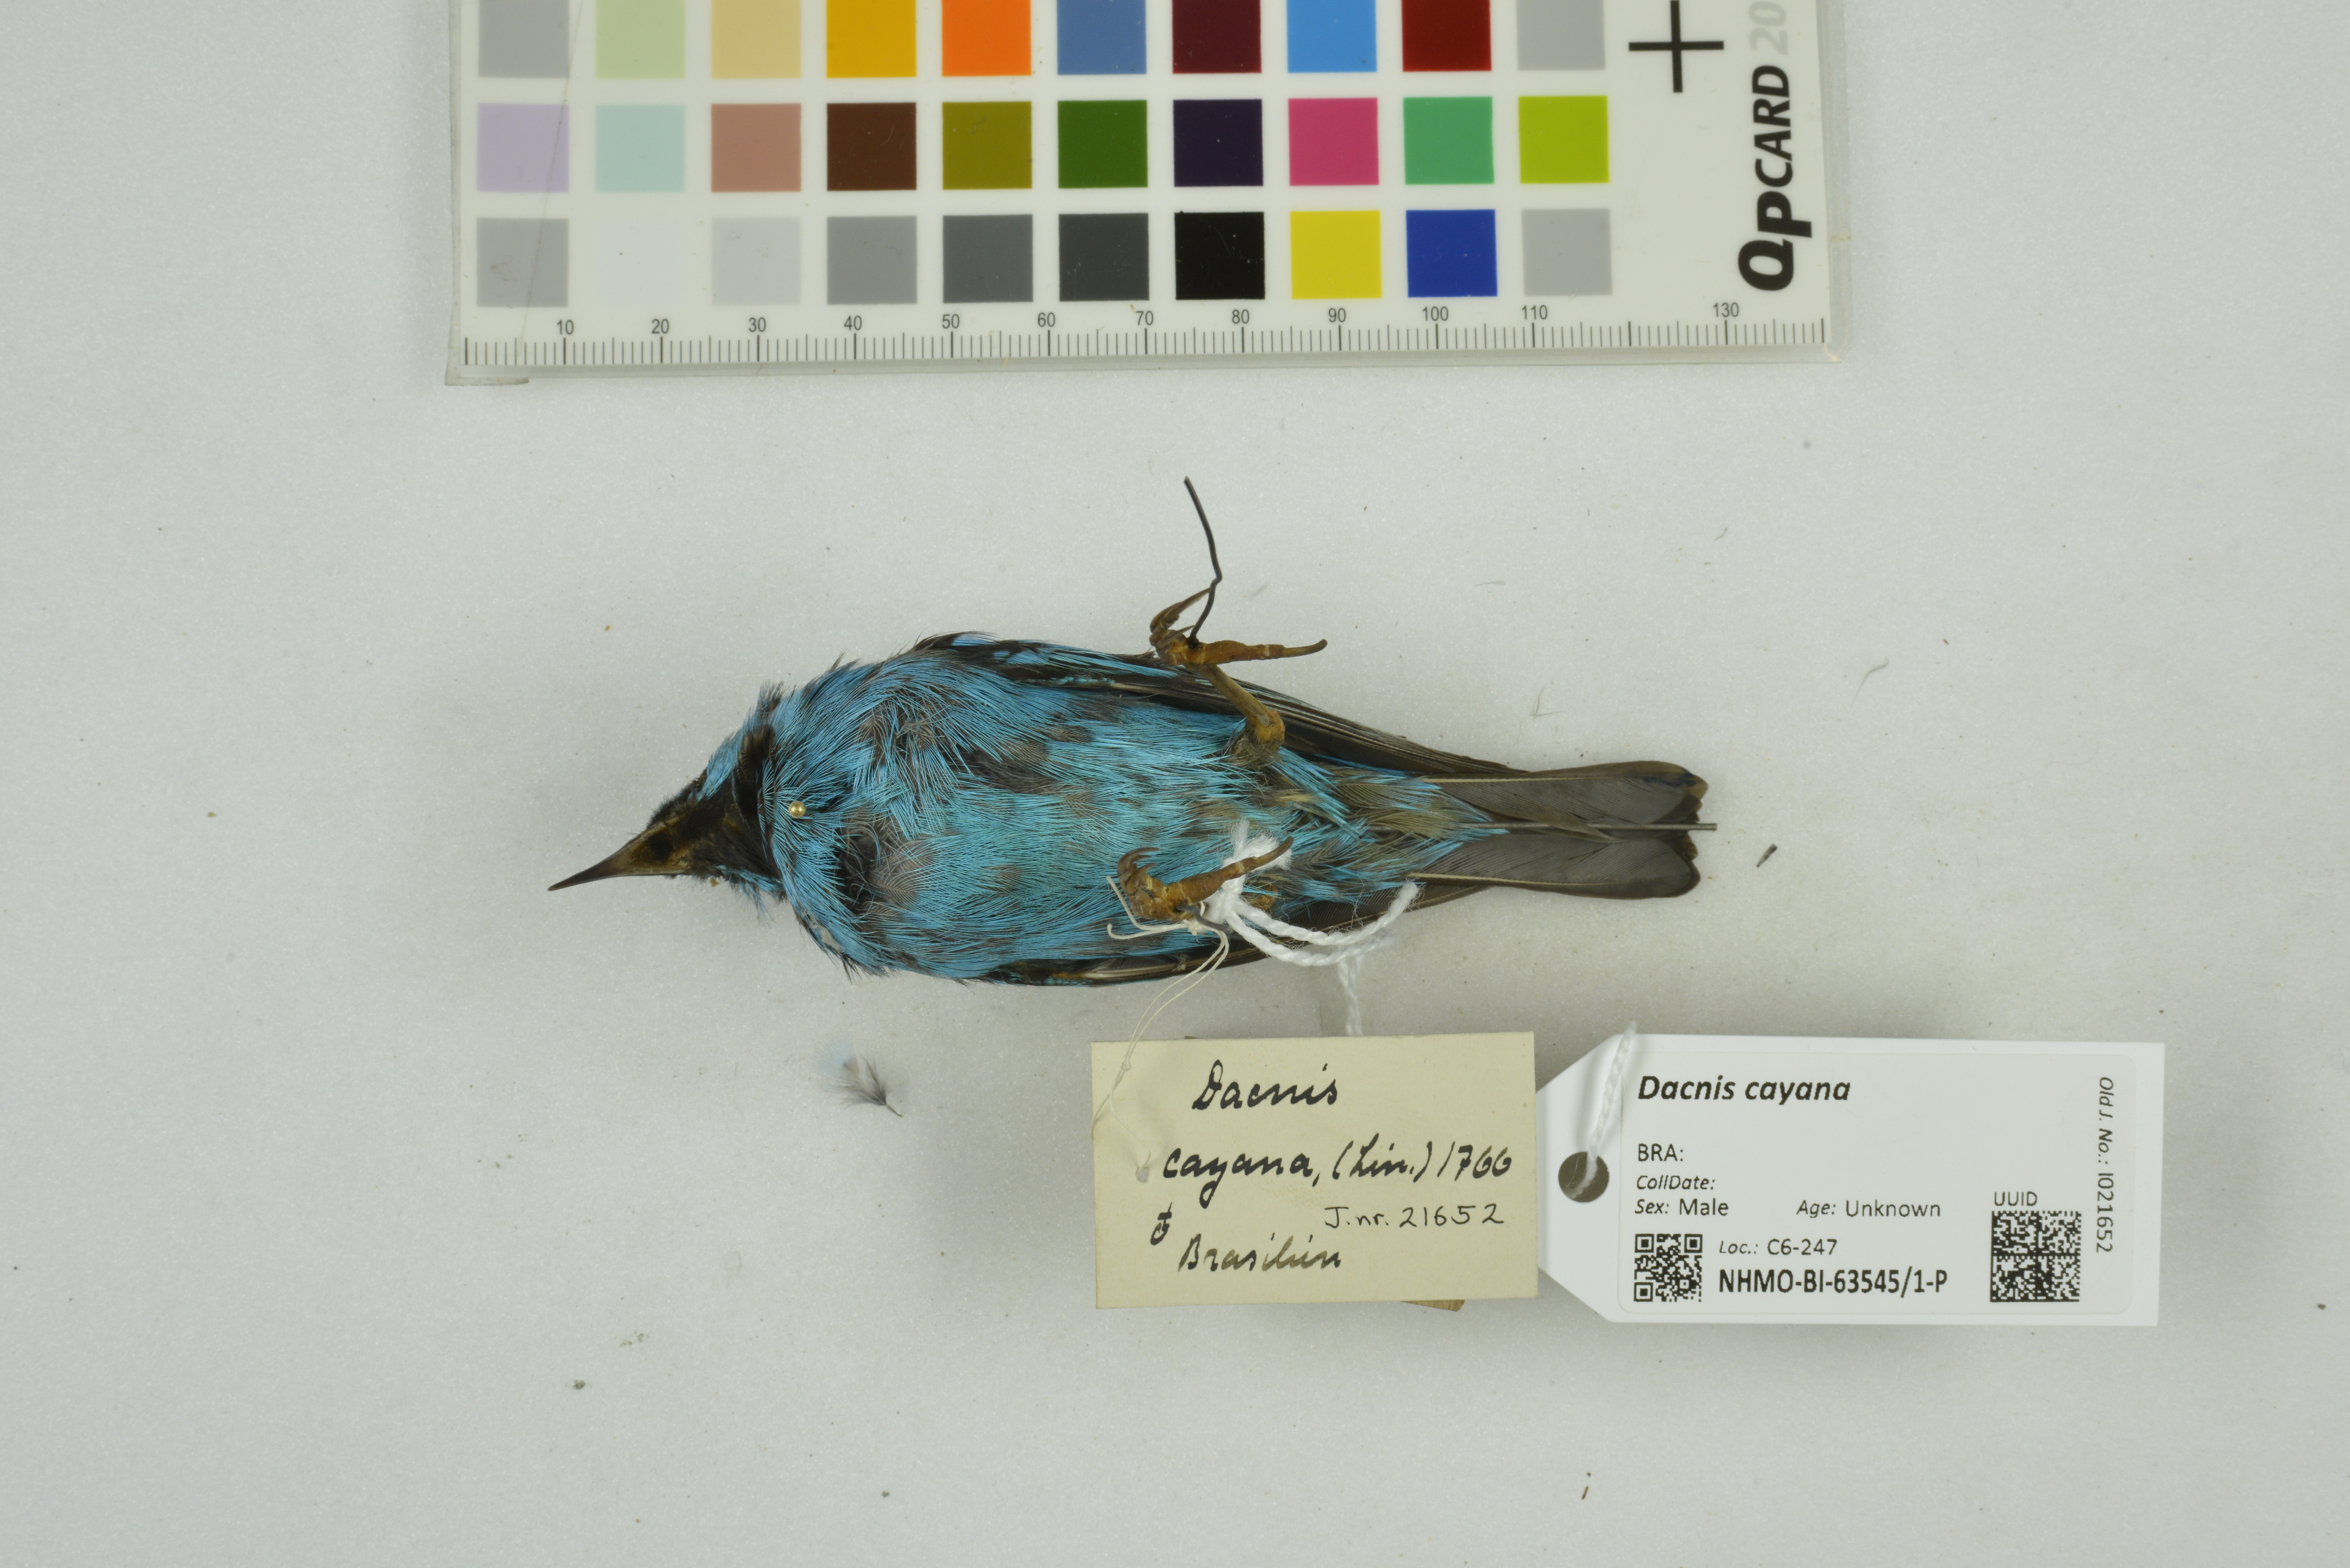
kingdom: Animalia
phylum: Chordata
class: Aves
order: Passeriformes
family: Thraupidae
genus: Dacnis
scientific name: Dacnis cayana
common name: Blue dacnis
